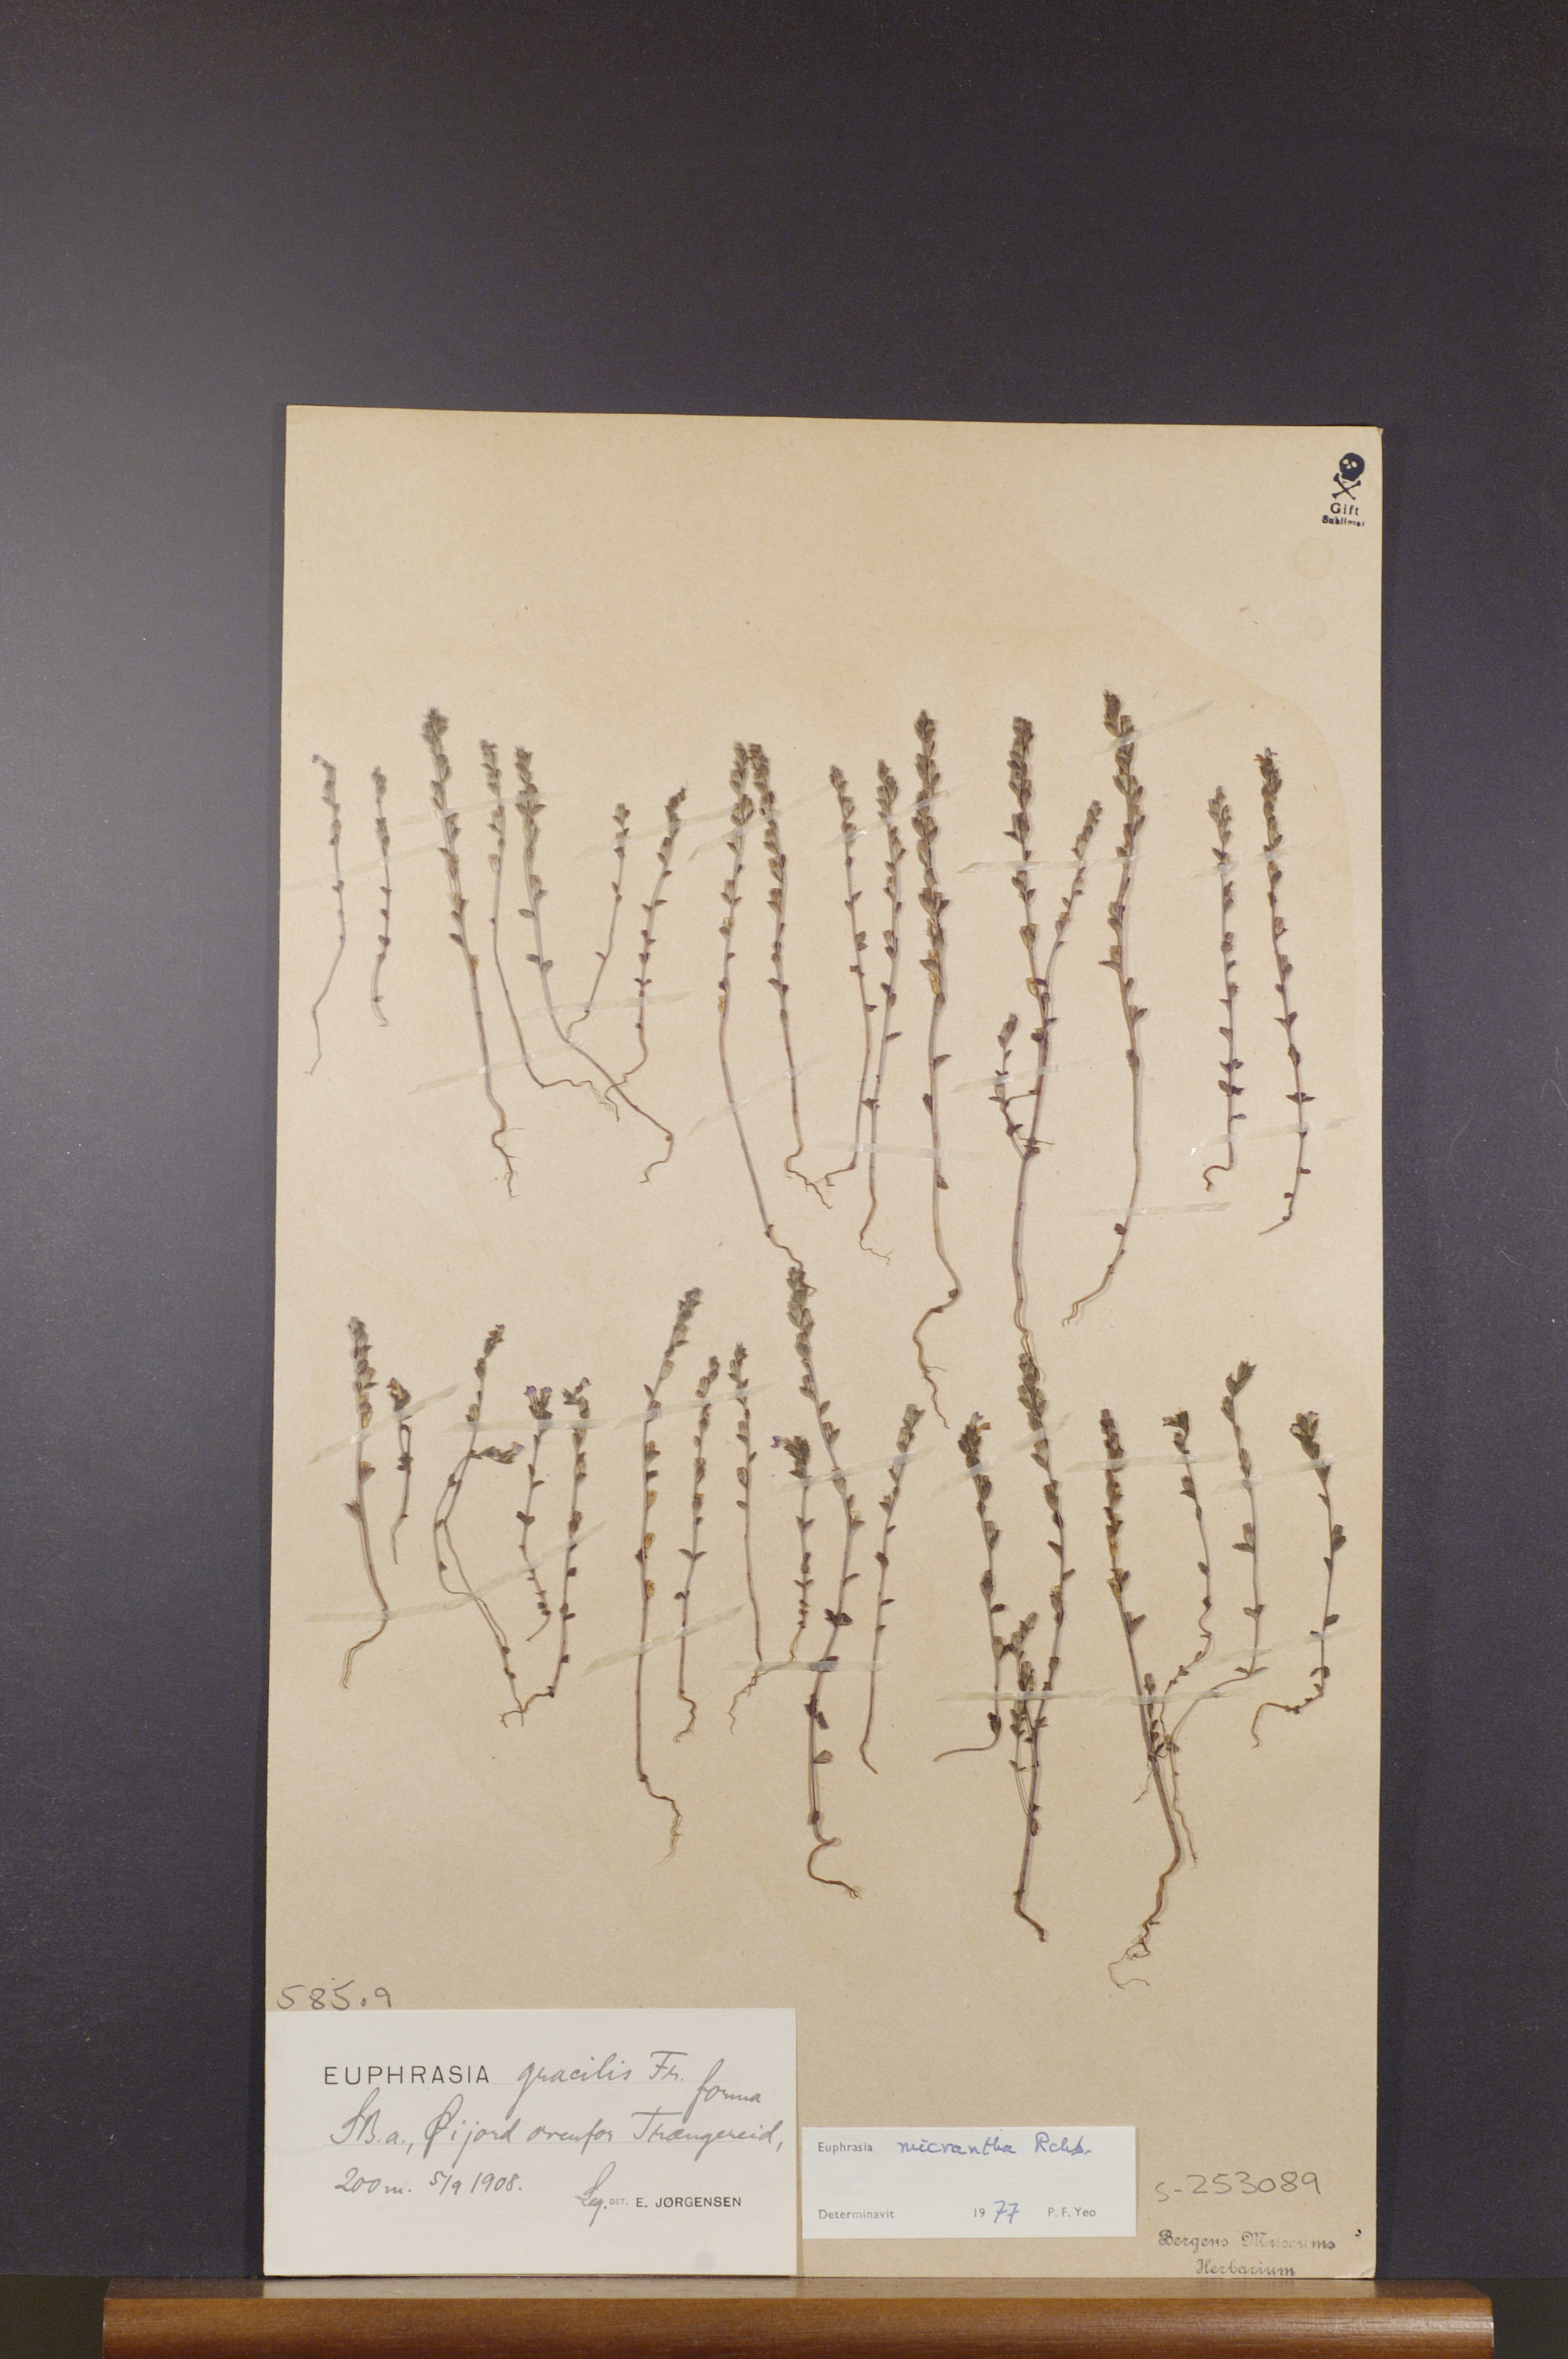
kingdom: Plantae
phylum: Tracheophyta
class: Magnoliopsida
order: Lamiales
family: Orobanchaceae
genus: Euphrasia
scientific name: Euphrasia micrantha
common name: Northern eyebright
